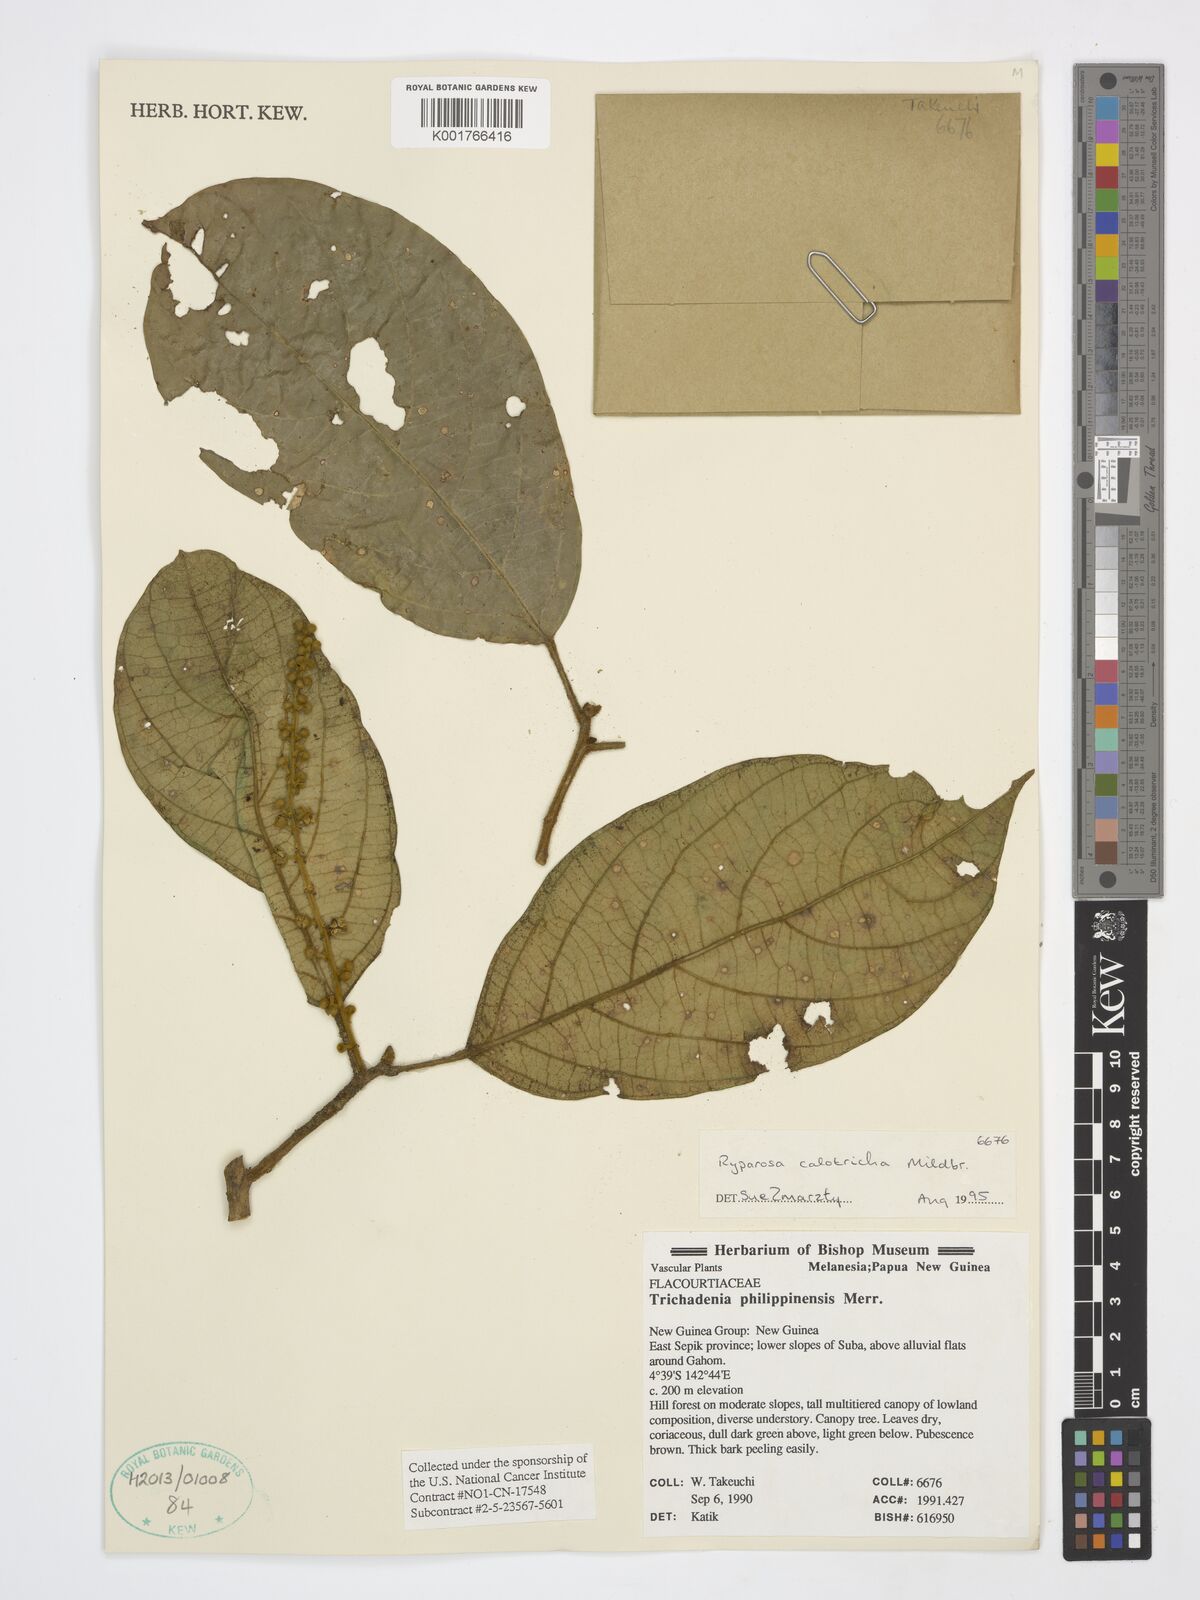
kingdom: Plantae
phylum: Tracheophyta
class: Magnoliopsida
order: Malpighiales
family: Achariaceae
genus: Ryparosa
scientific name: Ryparosa calotricha
